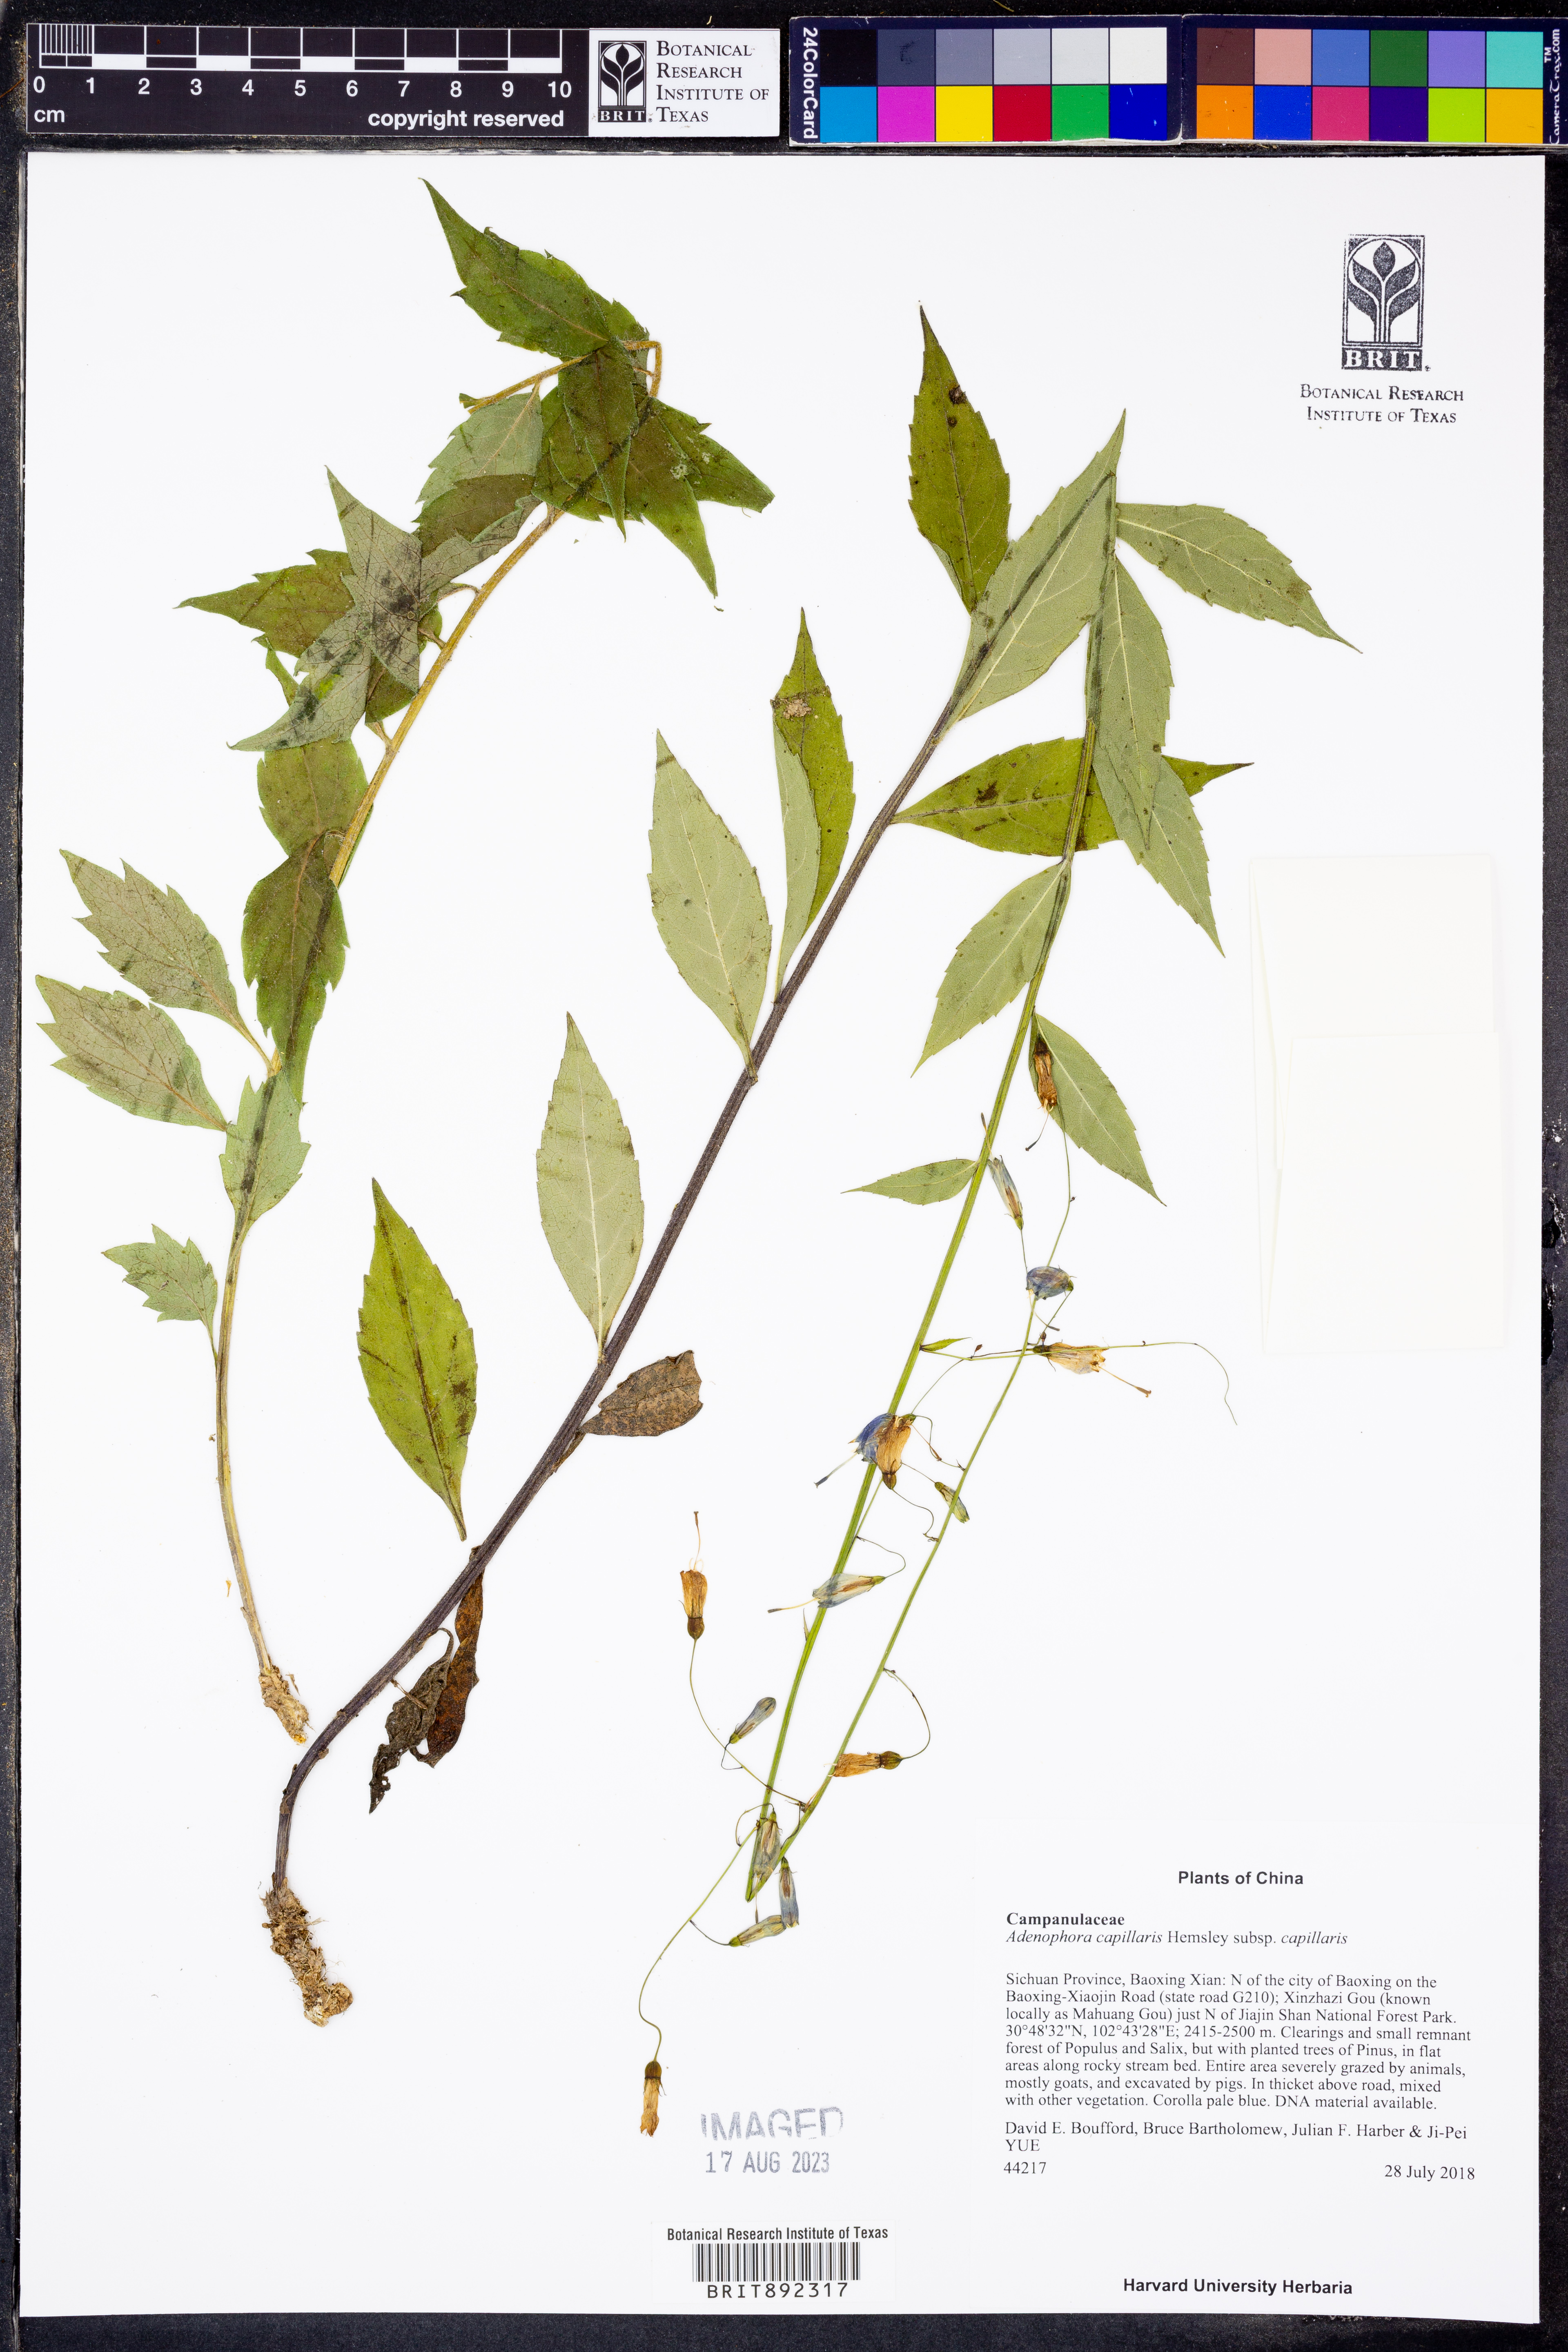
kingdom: Plantae
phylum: Tracheophyta
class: Magnoliopsida
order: Asterales
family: Campanulaceae
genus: Adenophora
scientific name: Adenophora capillaris
